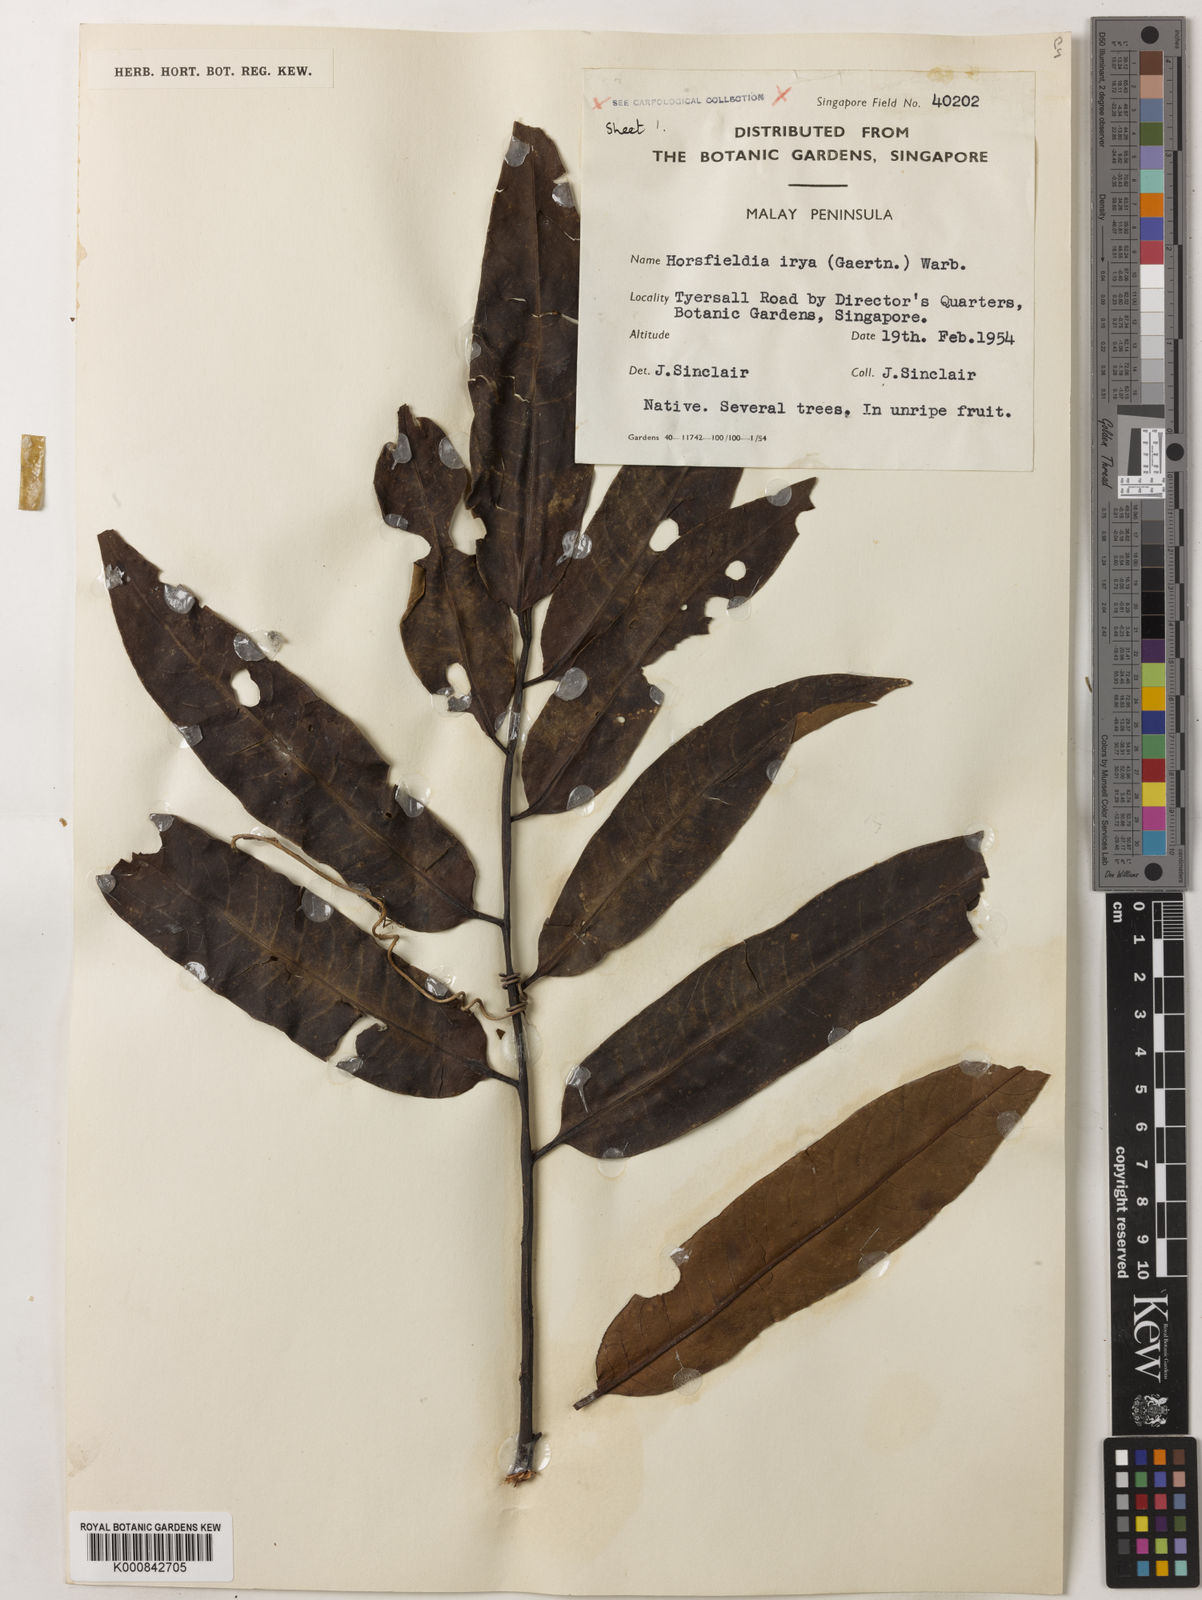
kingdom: Plantae
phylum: Tracheophyta
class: Magnoliopsida
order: Magnoliales
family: Myristicaceae
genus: Horsfieldia
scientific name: Horsfieldia irya
